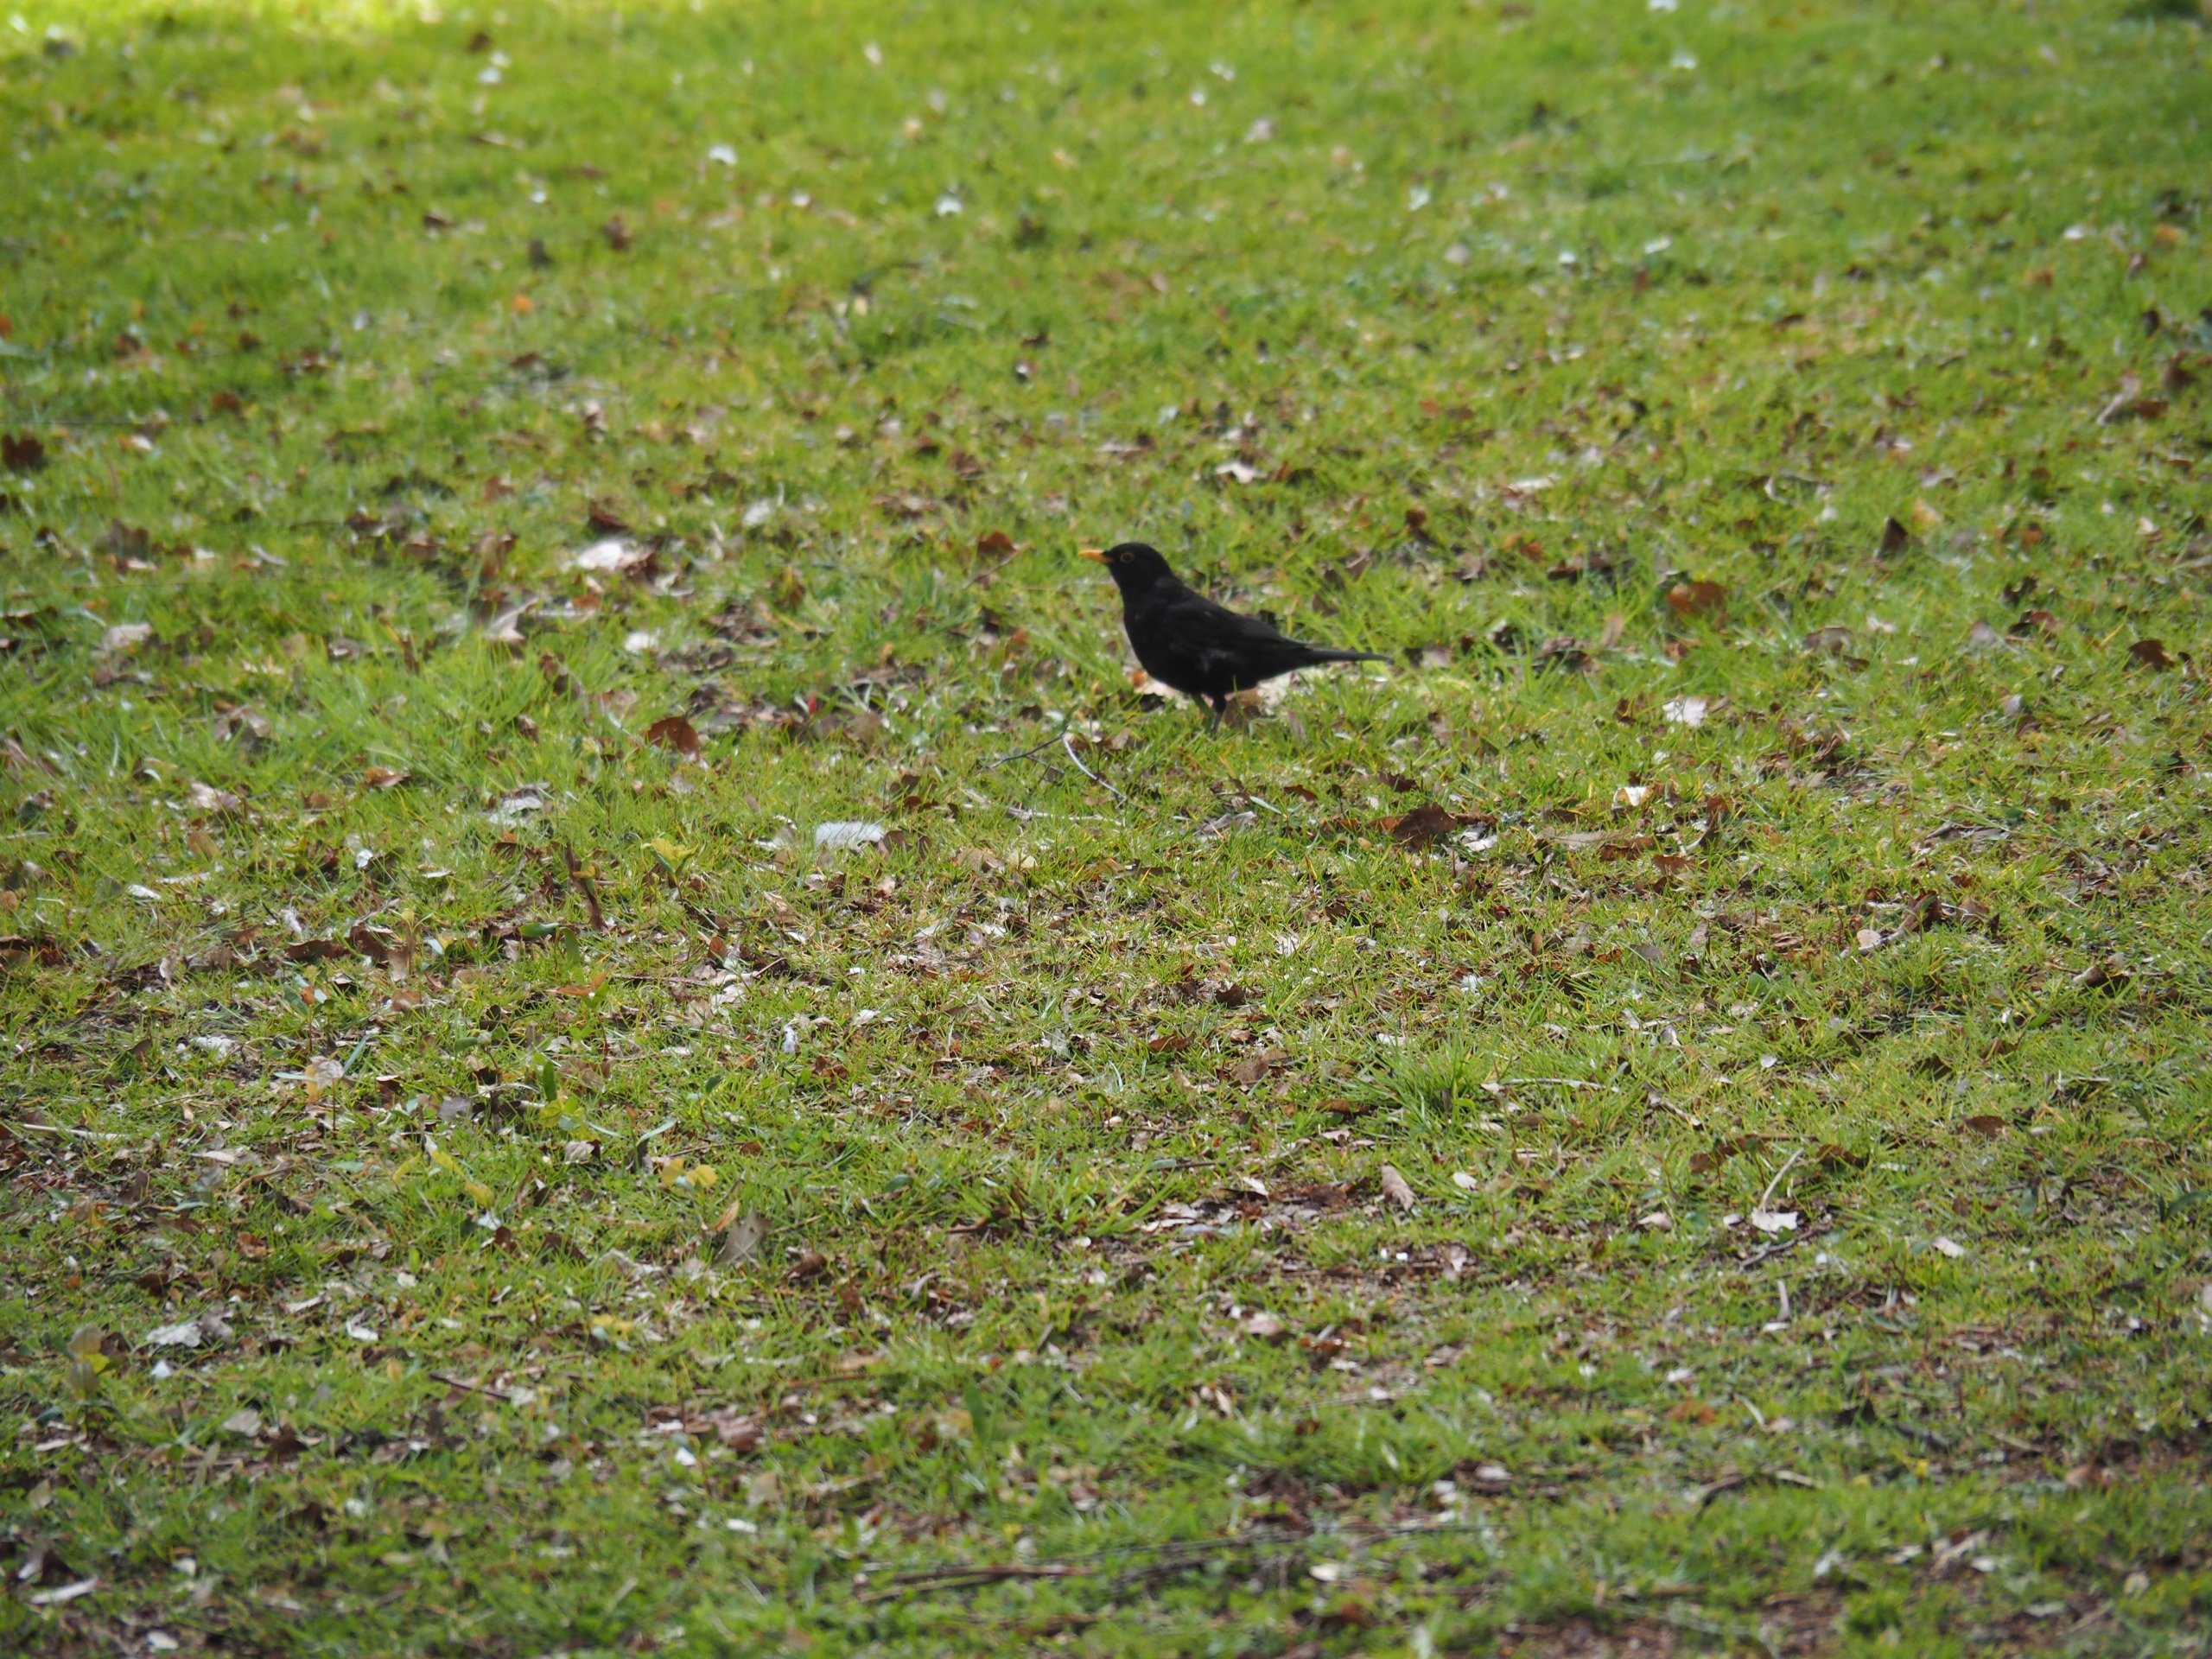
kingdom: Animalia
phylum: Chordata
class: Aves
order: Passeriformes
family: Turdidae
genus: Turdus
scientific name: Turdus merula
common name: Solsort
